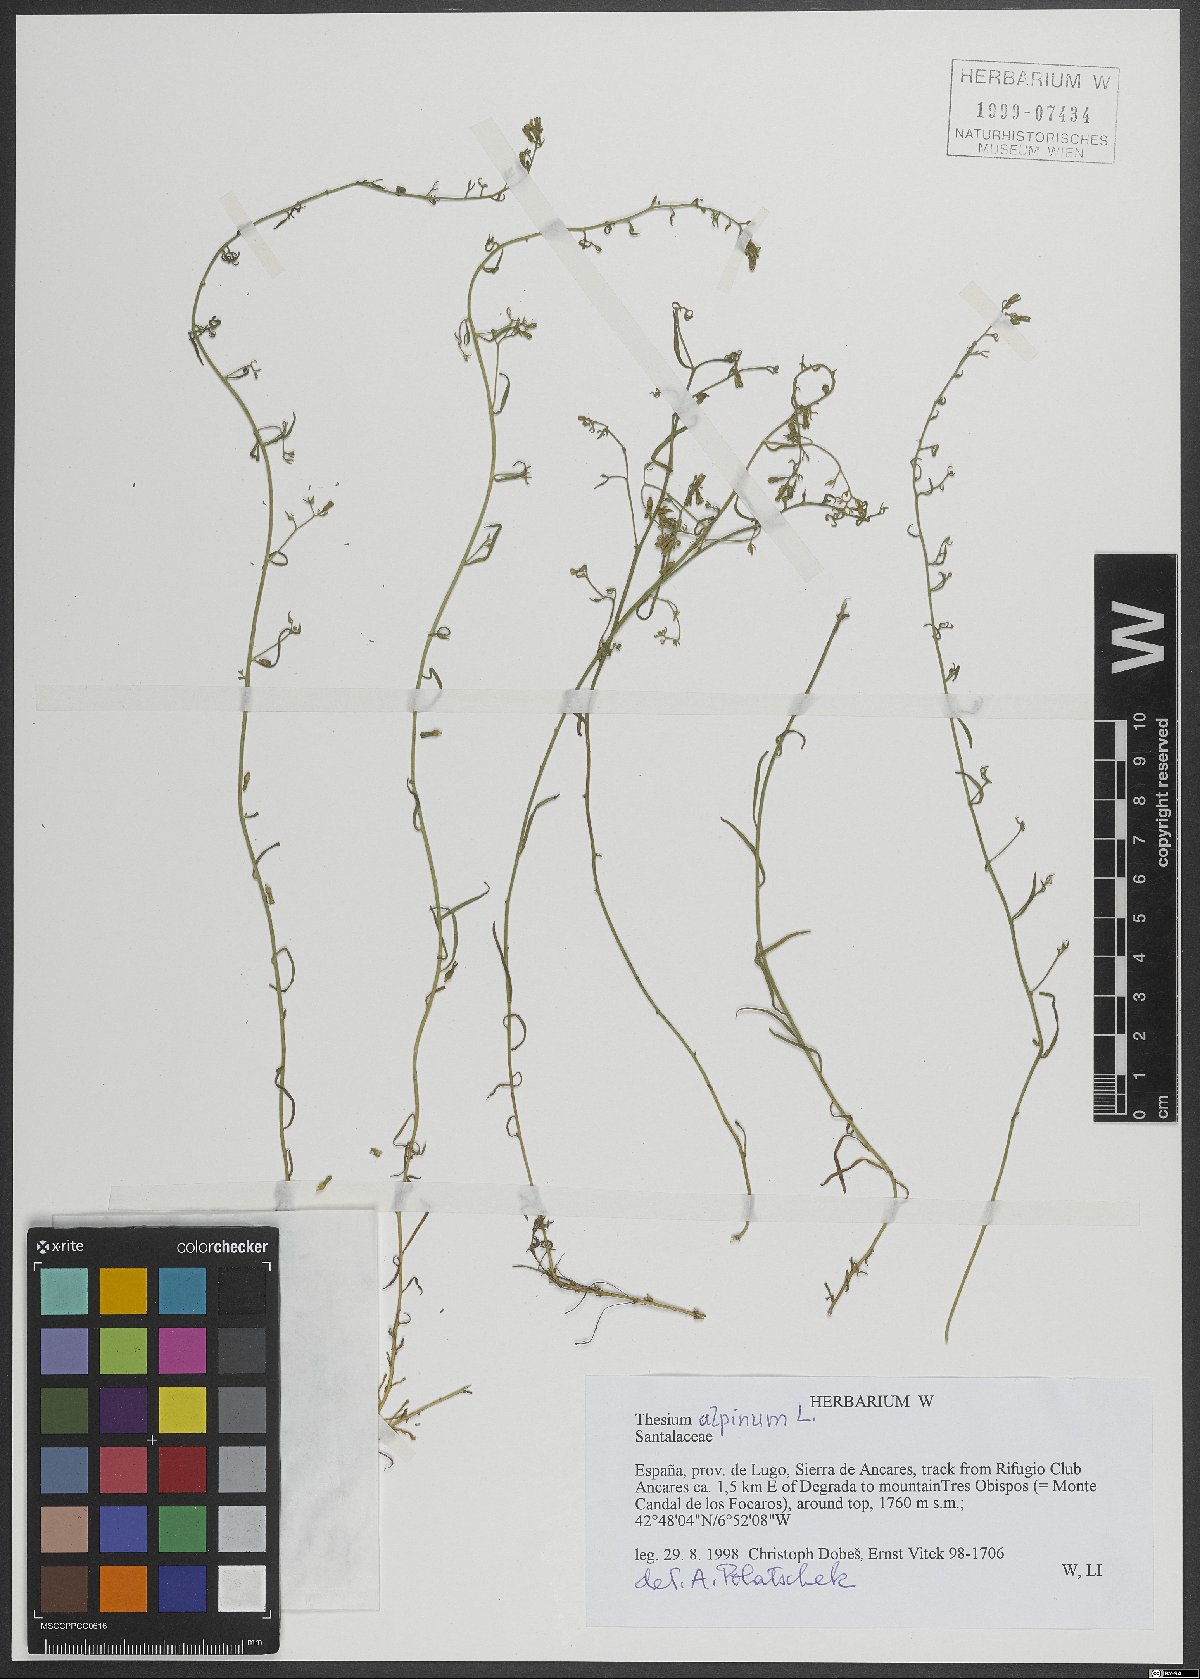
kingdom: Plantae
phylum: Tracheophyta
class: Magnoliopsida
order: Santalales
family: Thesiaceae
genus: Thesium
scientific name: Thesium alpinum
